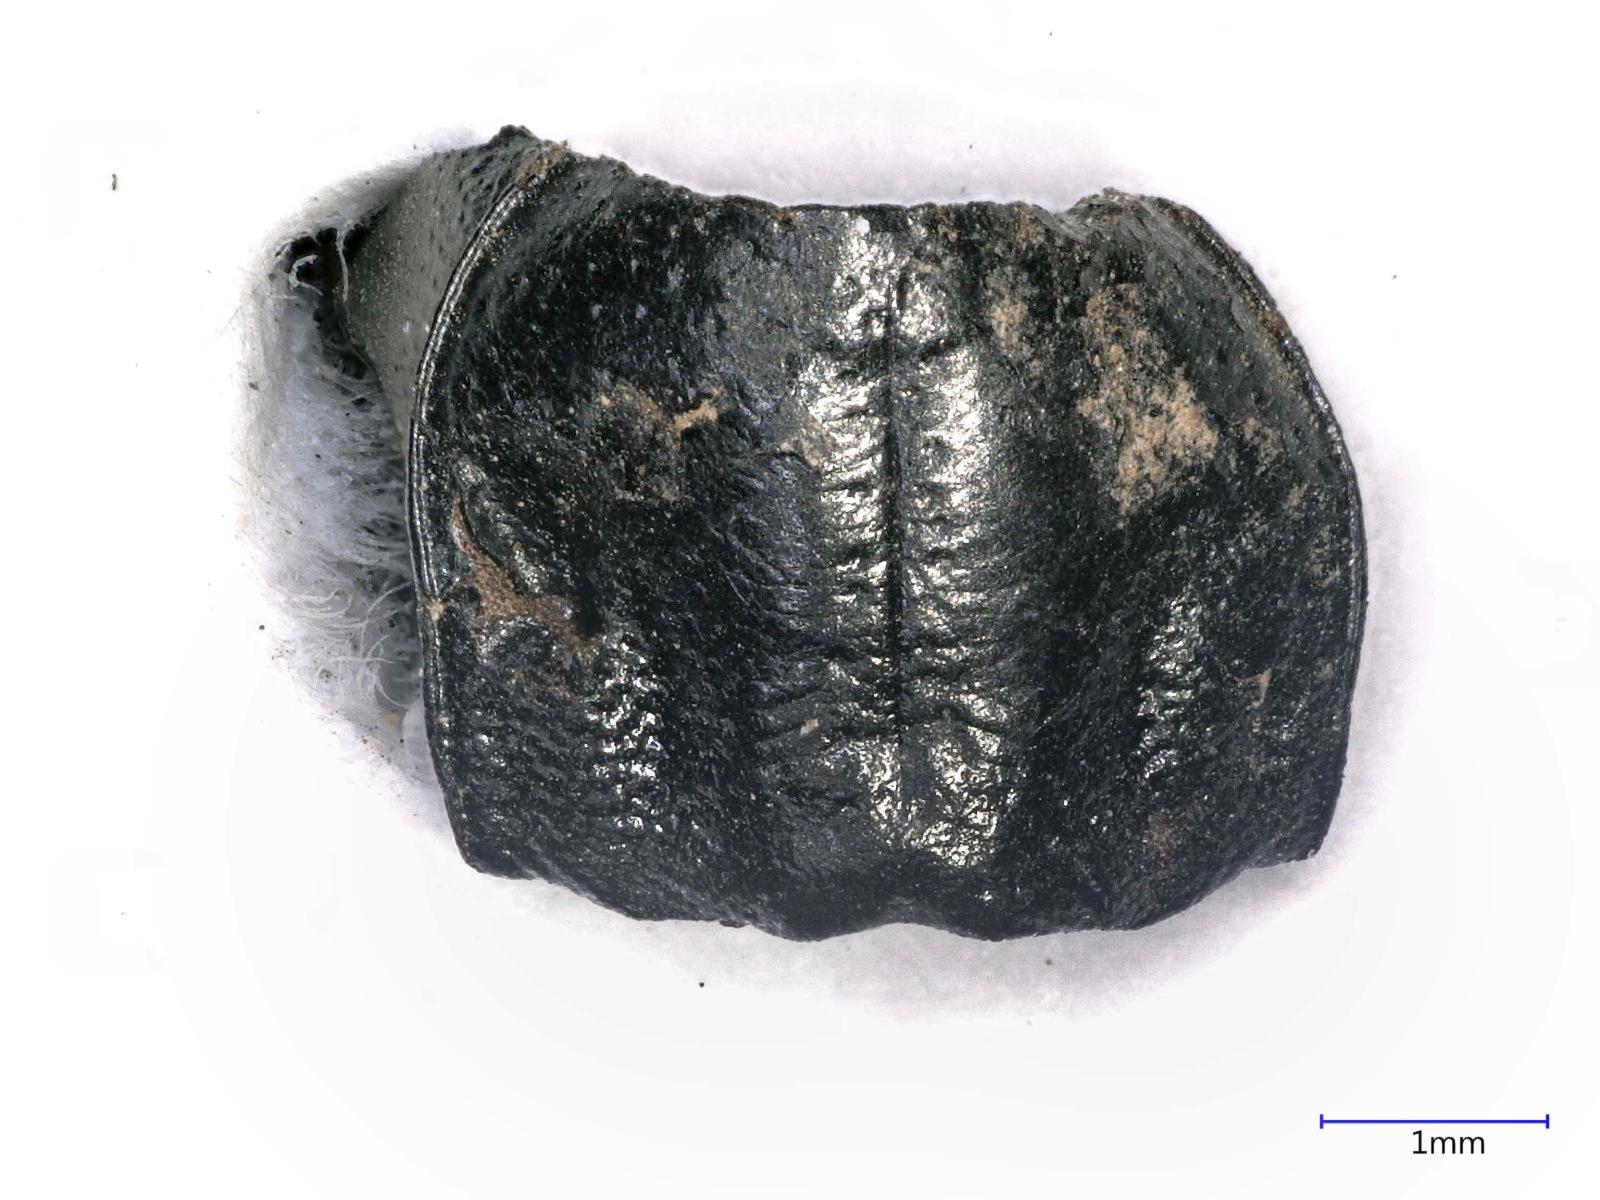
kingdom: Animalia
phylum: Arthropoda
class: Insecta
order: Coleoptera
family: Carabidae
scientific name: Carabidae
